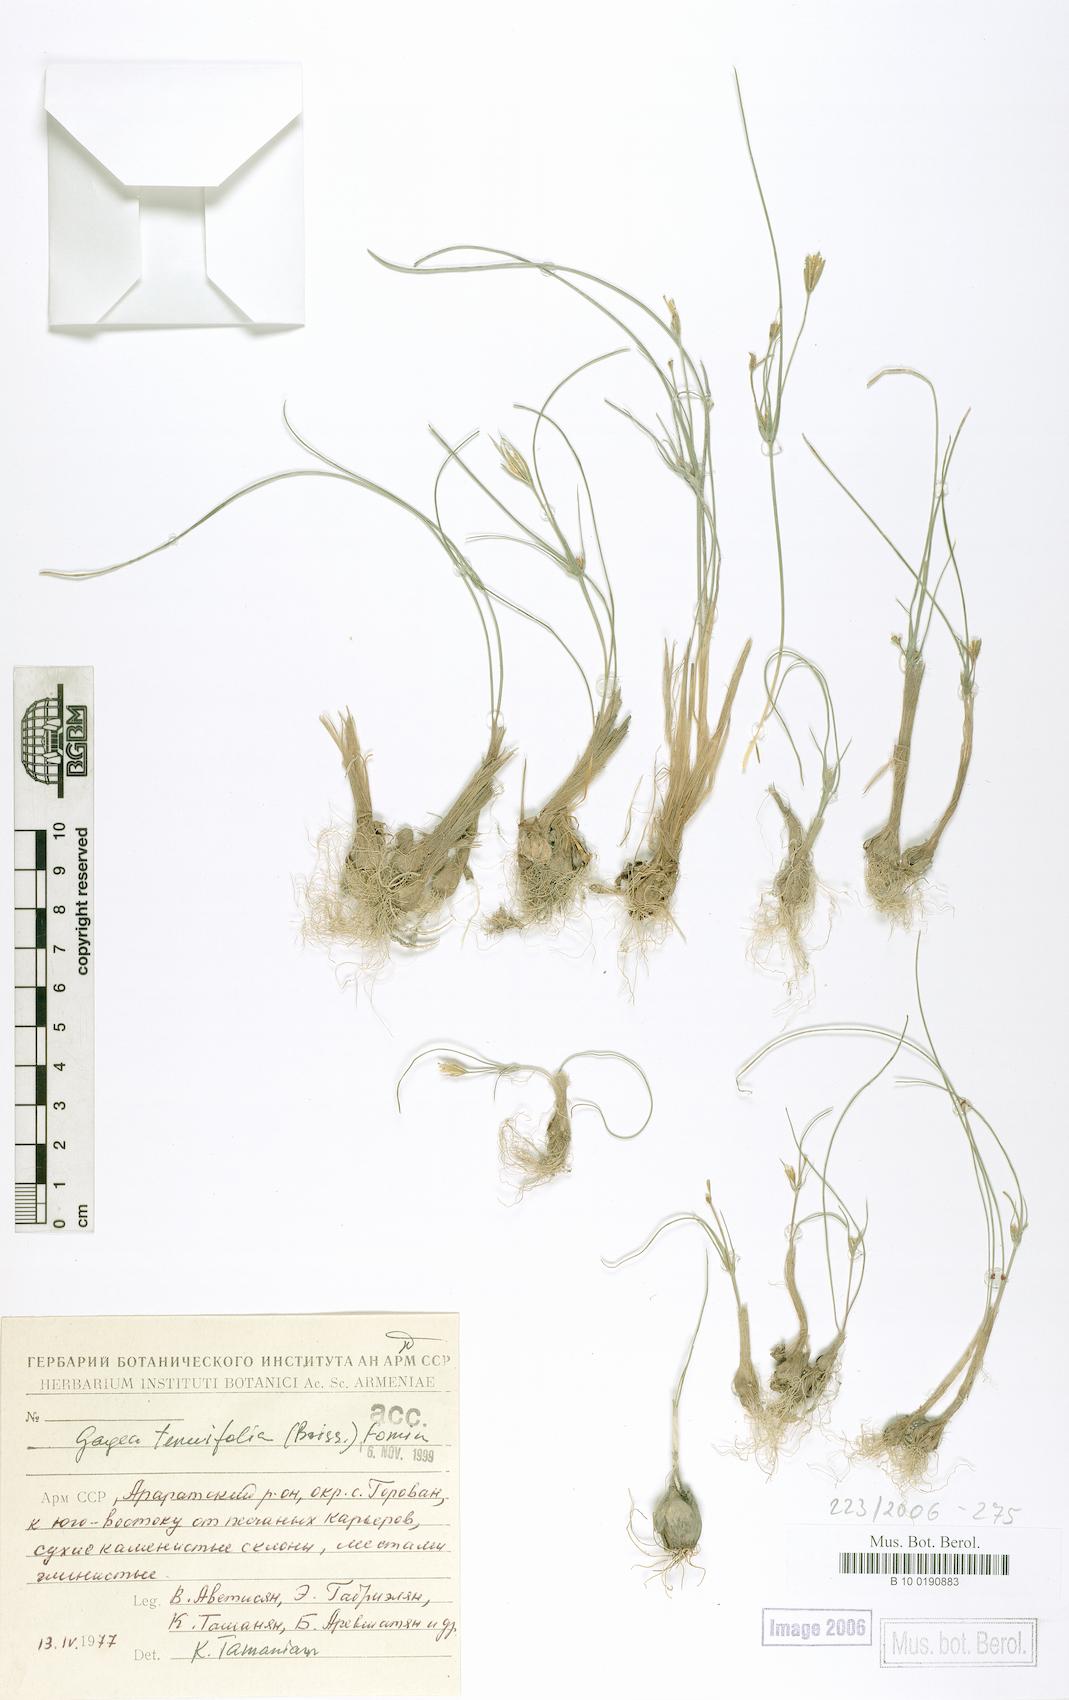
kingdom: Plantae
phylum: Tracheophyta
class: Liliopsida
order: Liliales
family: Liliaceae
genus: Gagea
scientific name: Gagea reticulata
